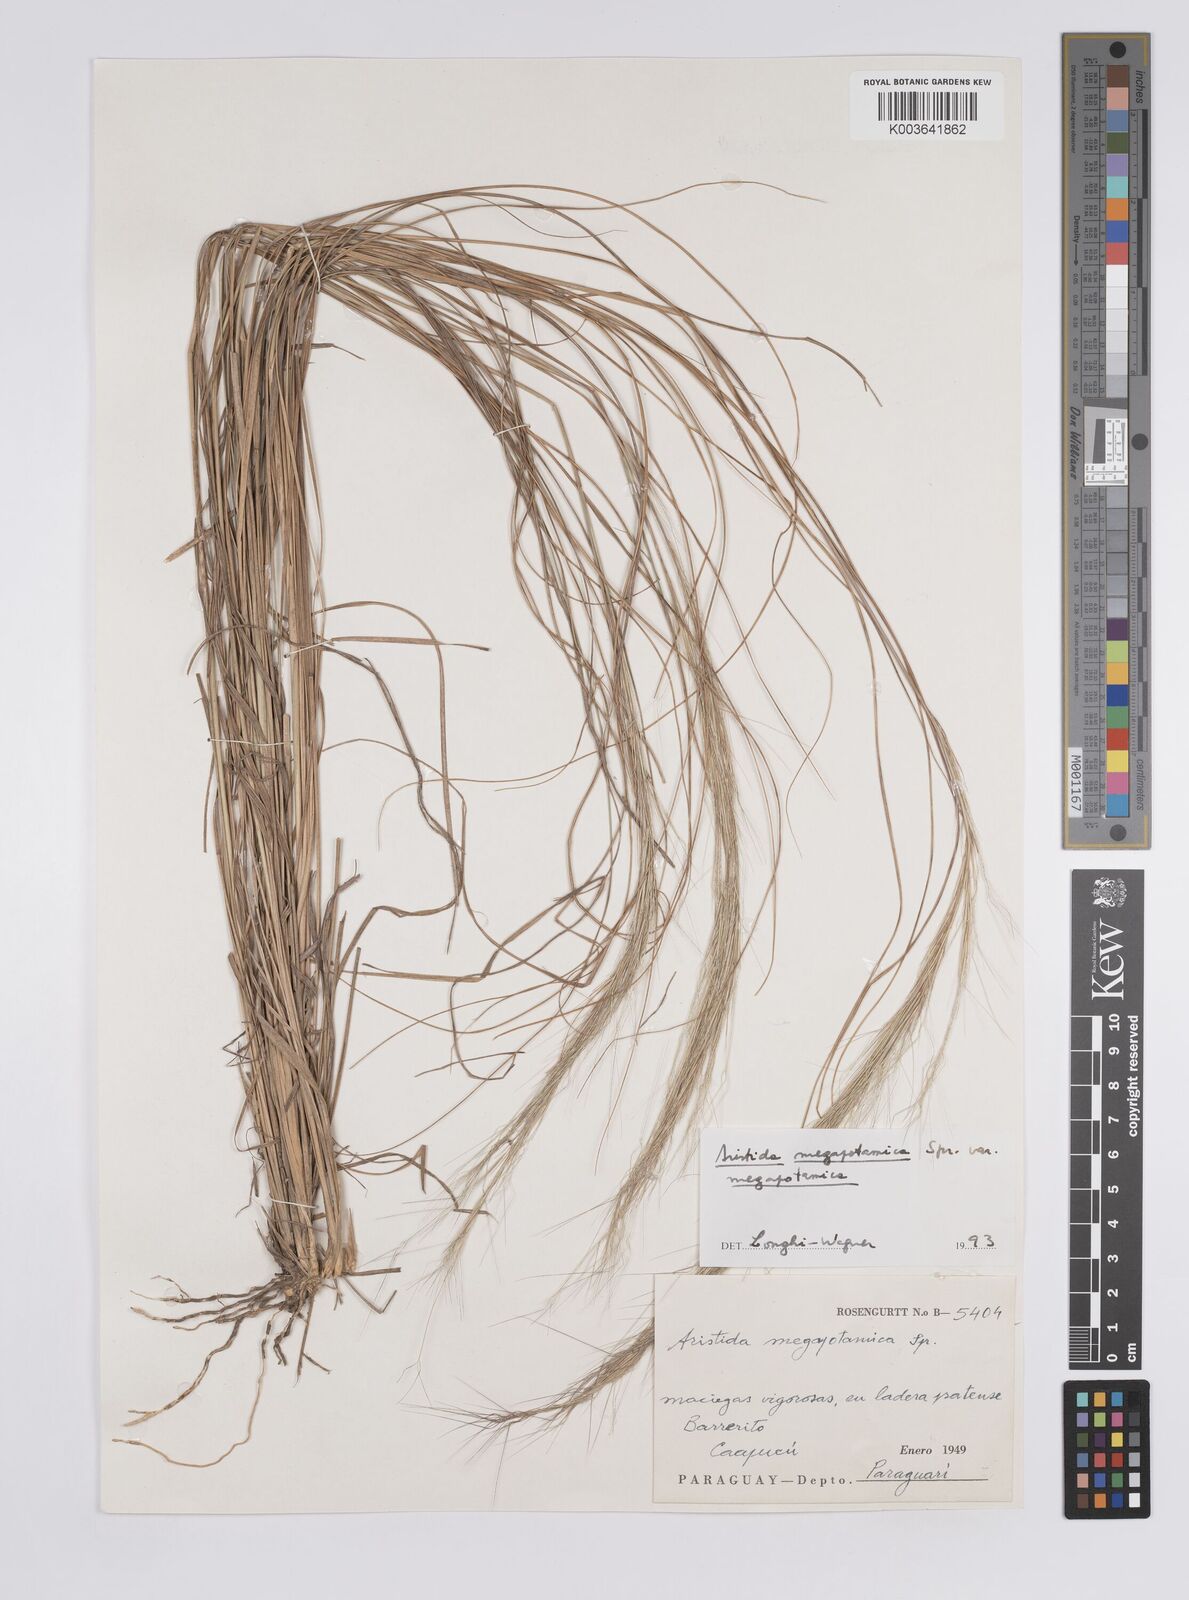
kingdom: Plantae
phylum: Tracheophyta
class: Liliopsida
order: Poales
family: Poaceae
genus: Aristida
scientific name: Aristida megapotamica
